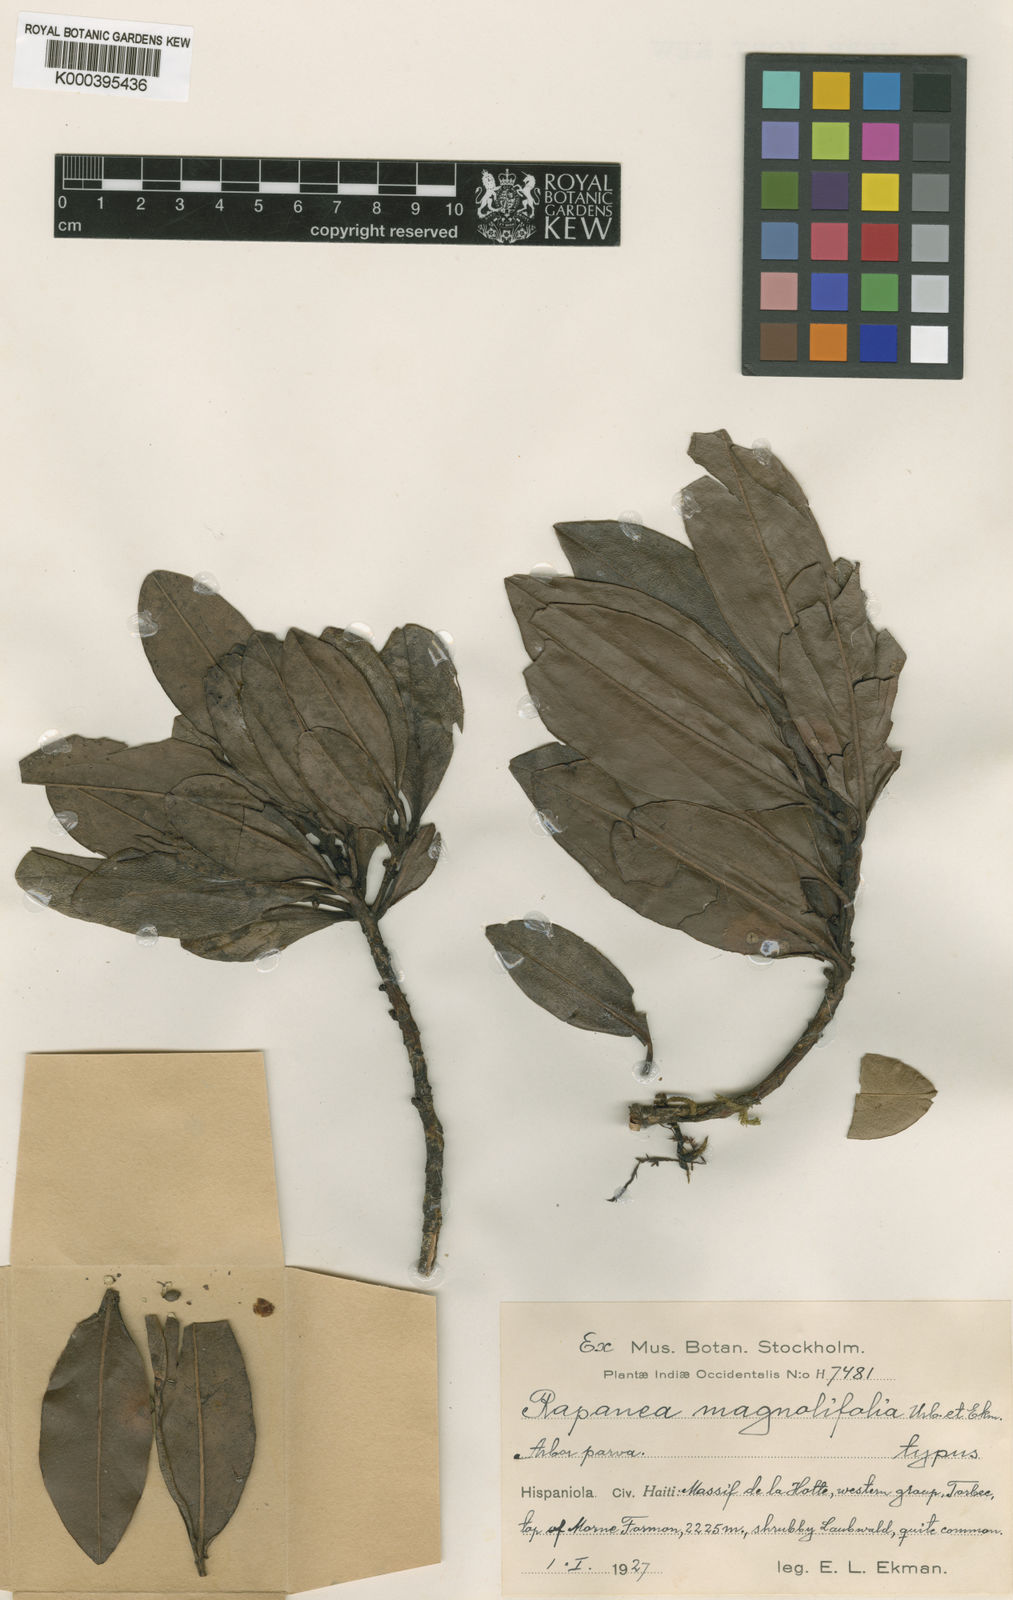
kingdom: Plantae
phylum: Tracheophyta
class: Magnoliopsida
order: Ericales
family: Primulaceae
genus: Myrsine
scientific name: Myrsine magnoliifolia
